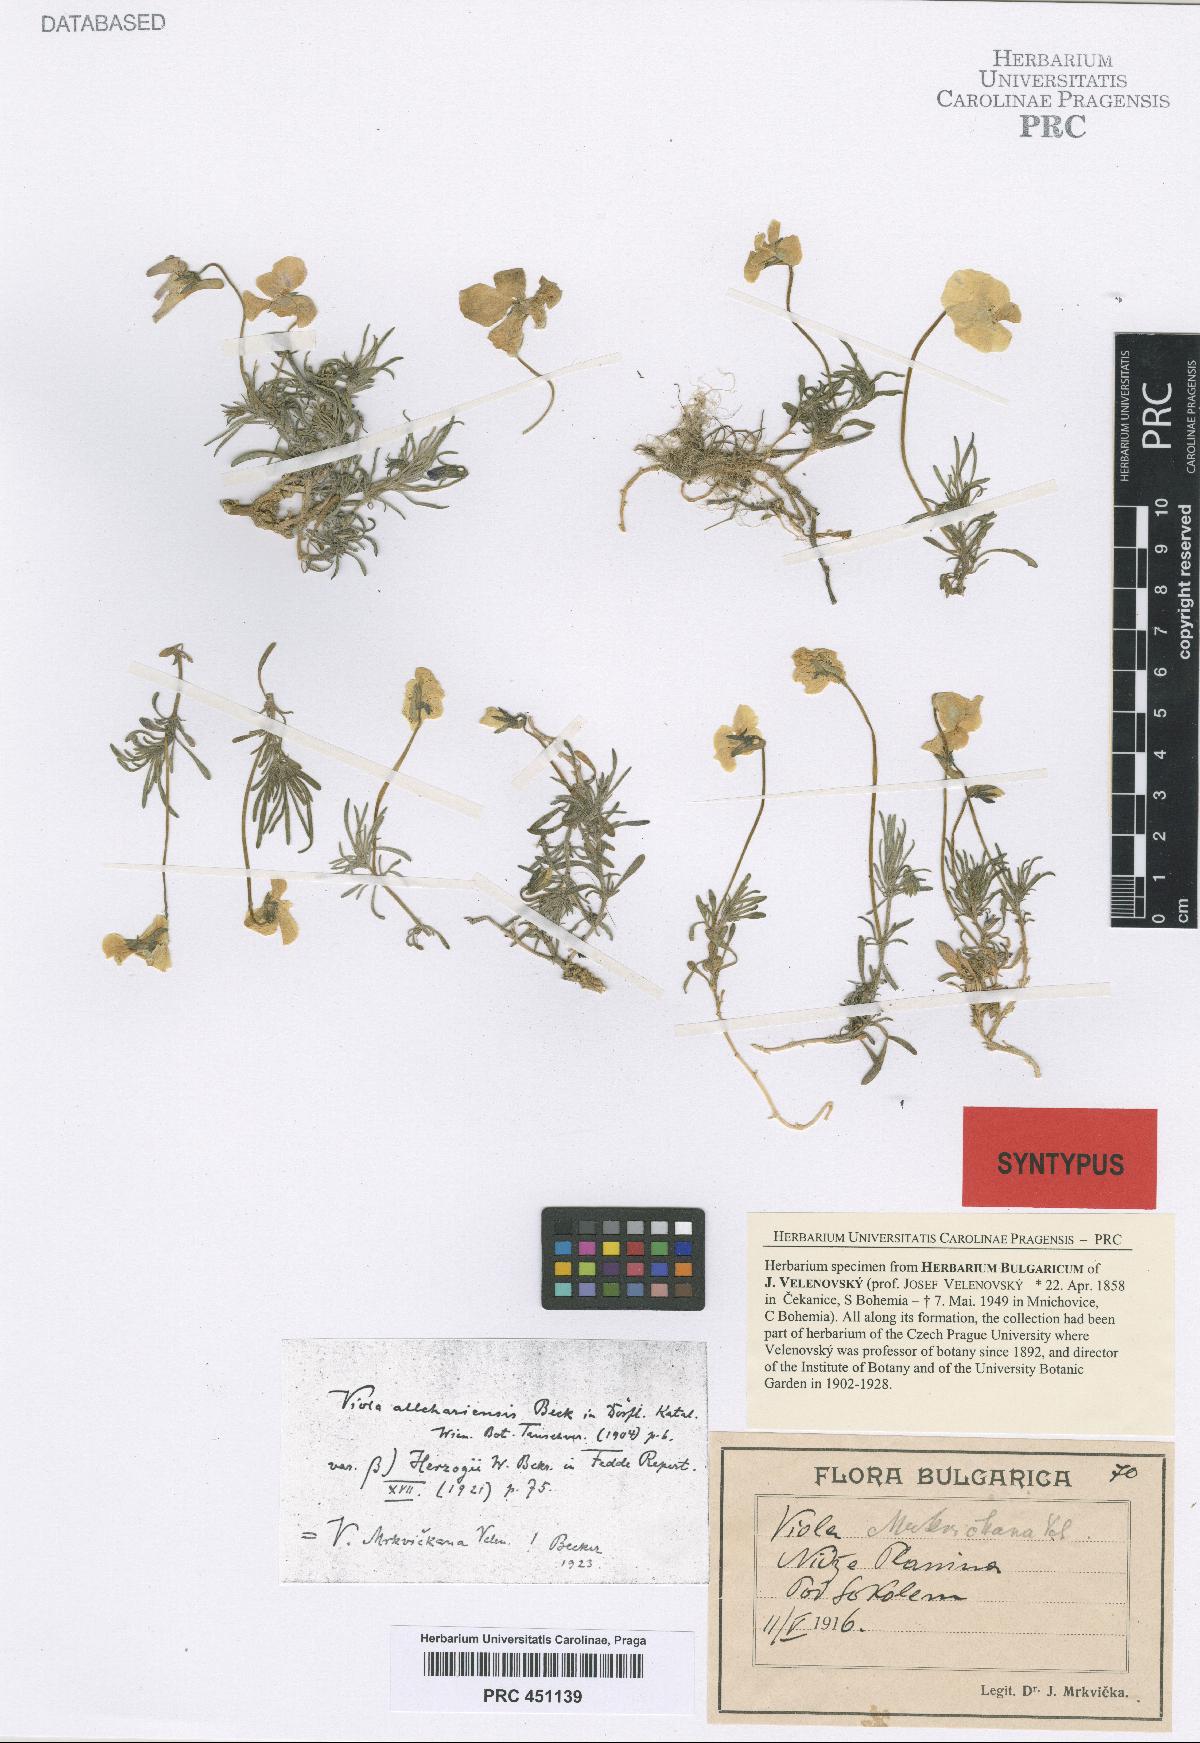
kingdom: Plantae
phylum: Tracheophyta
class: Magnoliopsida
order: Malpighiales
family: Violaceae
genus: Viola
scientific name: Viola herzogii
